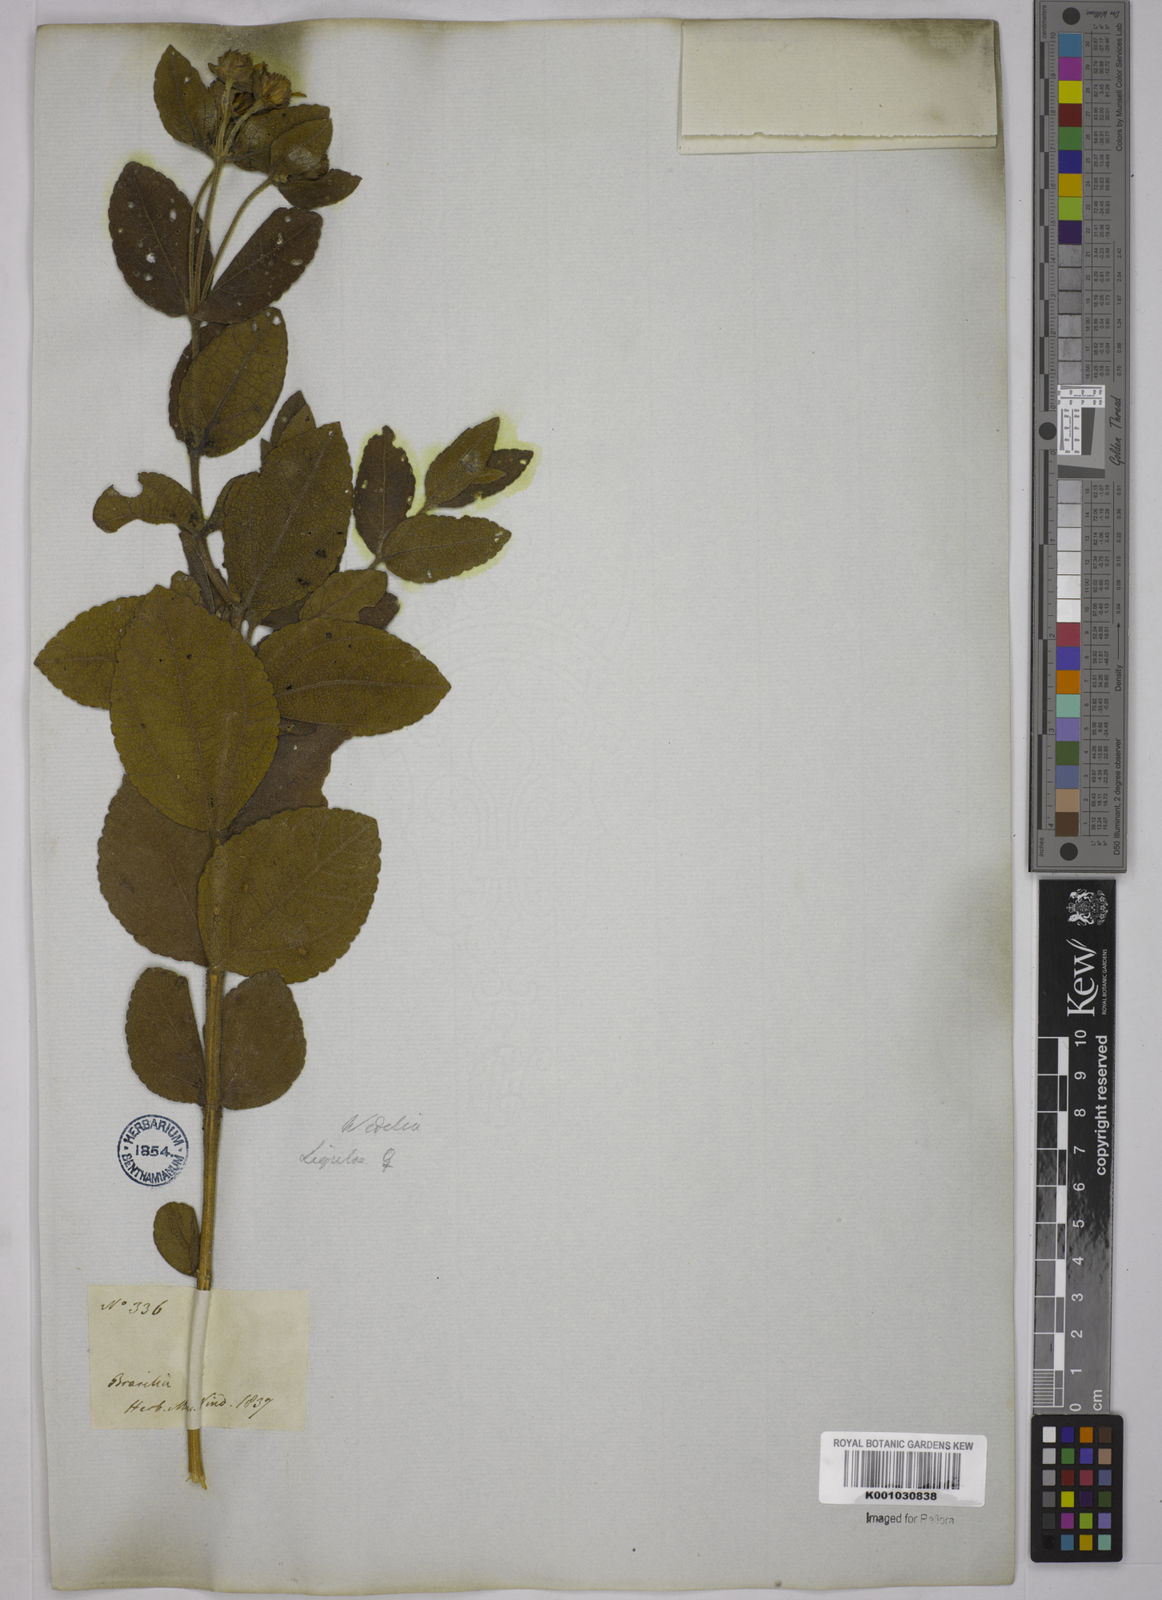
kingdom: Plantae
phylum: Tracheophyta
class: Magnoliopsida
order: Asterales
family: Asteraceae
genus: Wedelia
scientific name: Wedelia vauthieri
